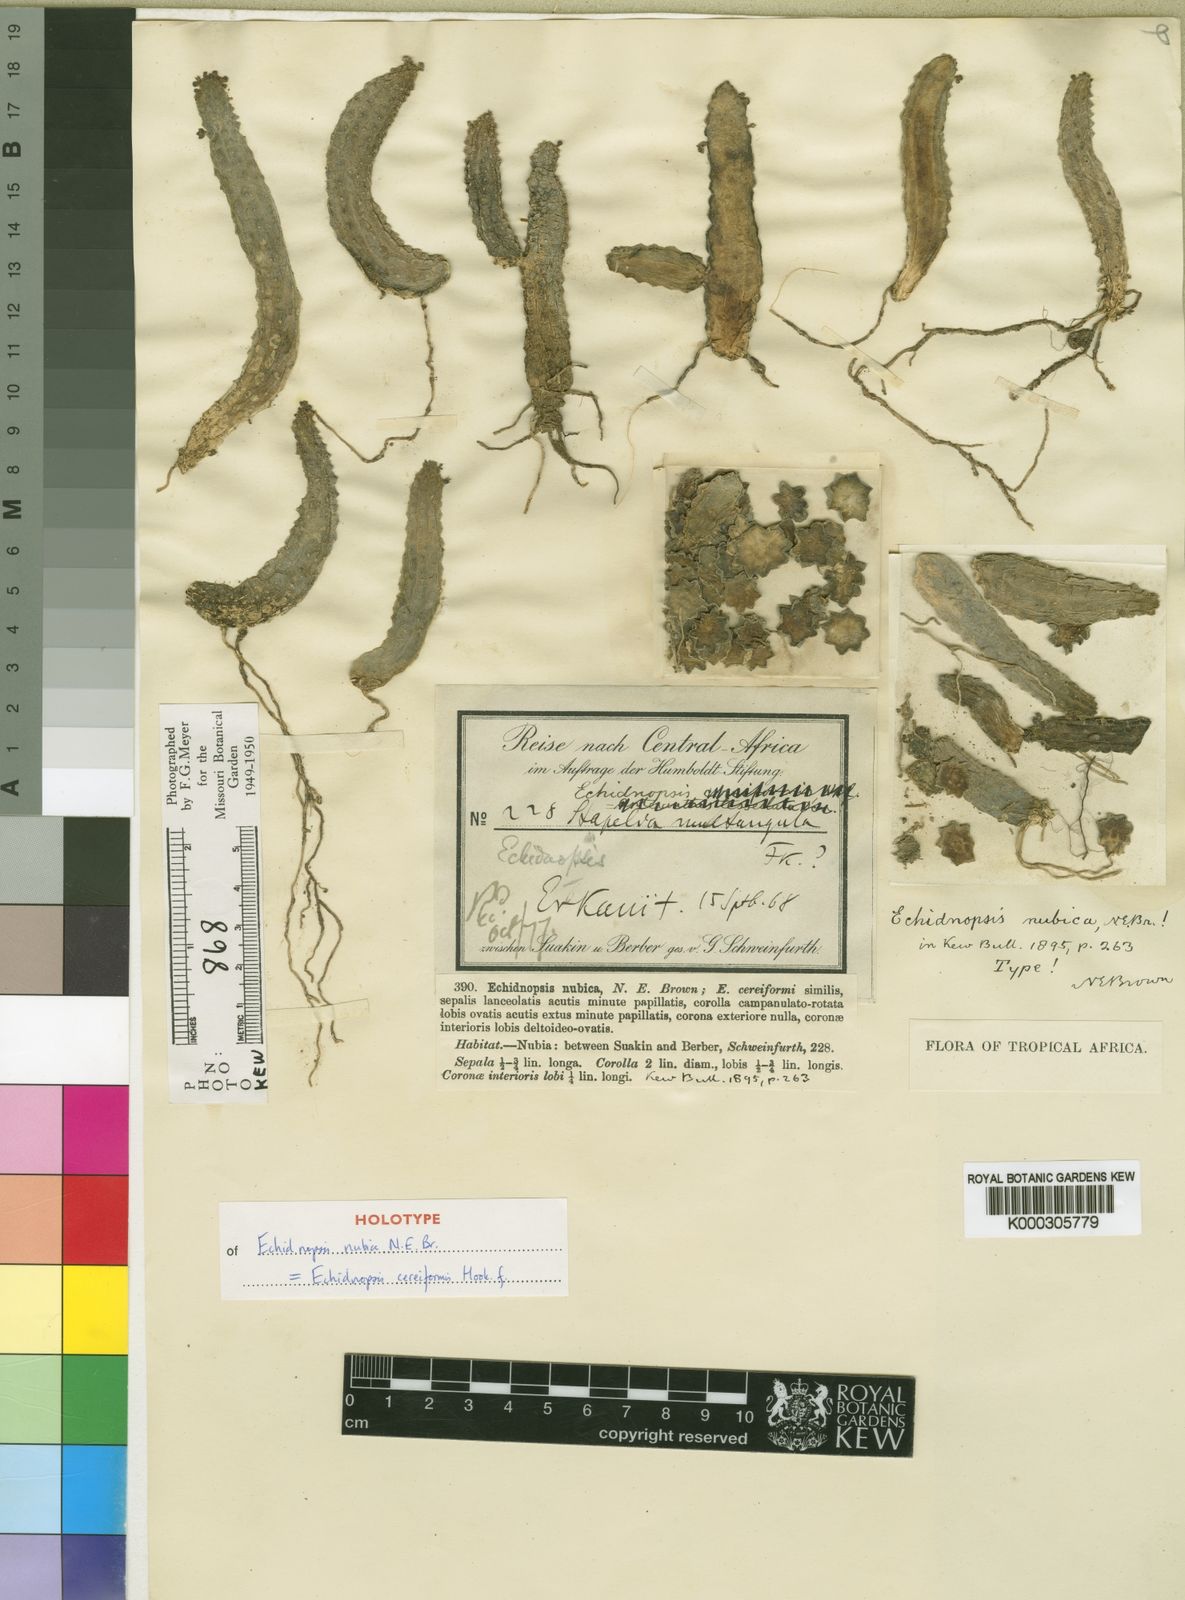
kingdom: Plantae
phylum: Tracheophyta
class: Magnoliopsida
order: Gentianales
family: Apocynaceae
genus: Ceropegia
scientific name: Ceropegia nubica
